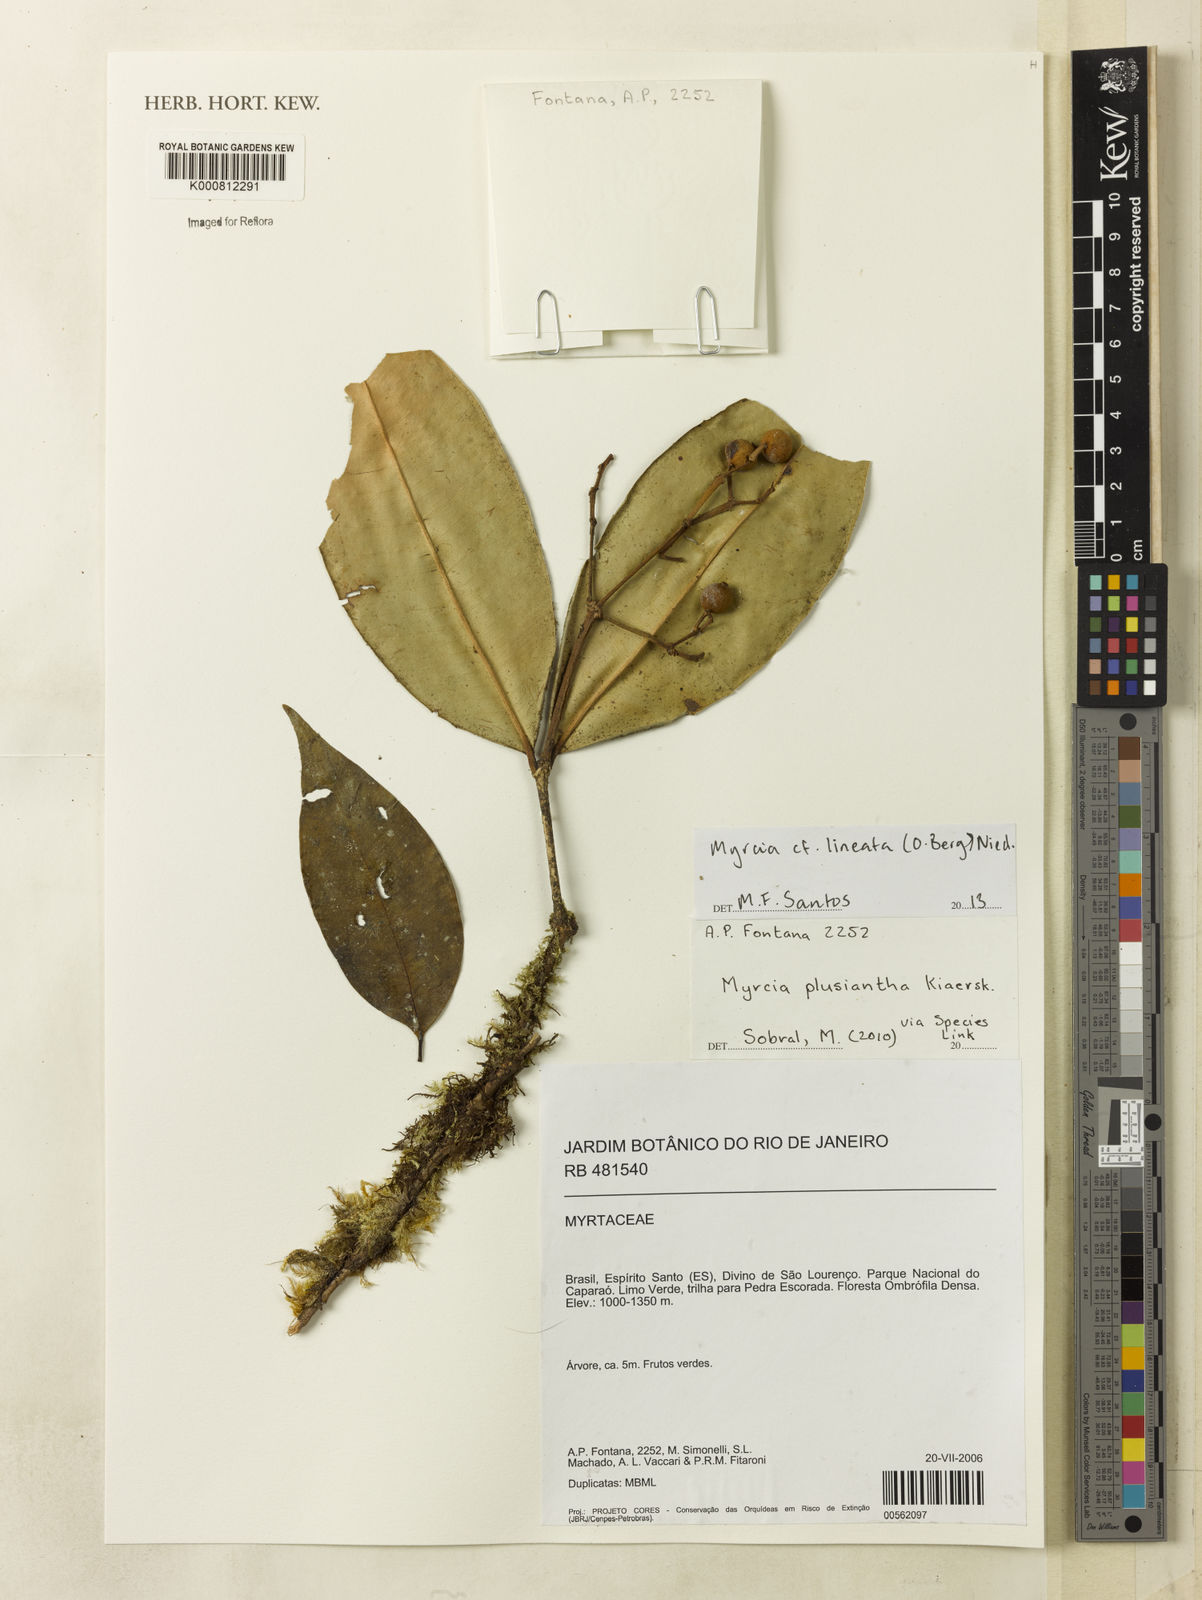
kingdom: Plantae
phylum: Tracheophyta
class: Magnoliopsida
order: Myrtales
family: Myrtaceae
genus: Myrcia
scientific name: Myrcia plusiantha
